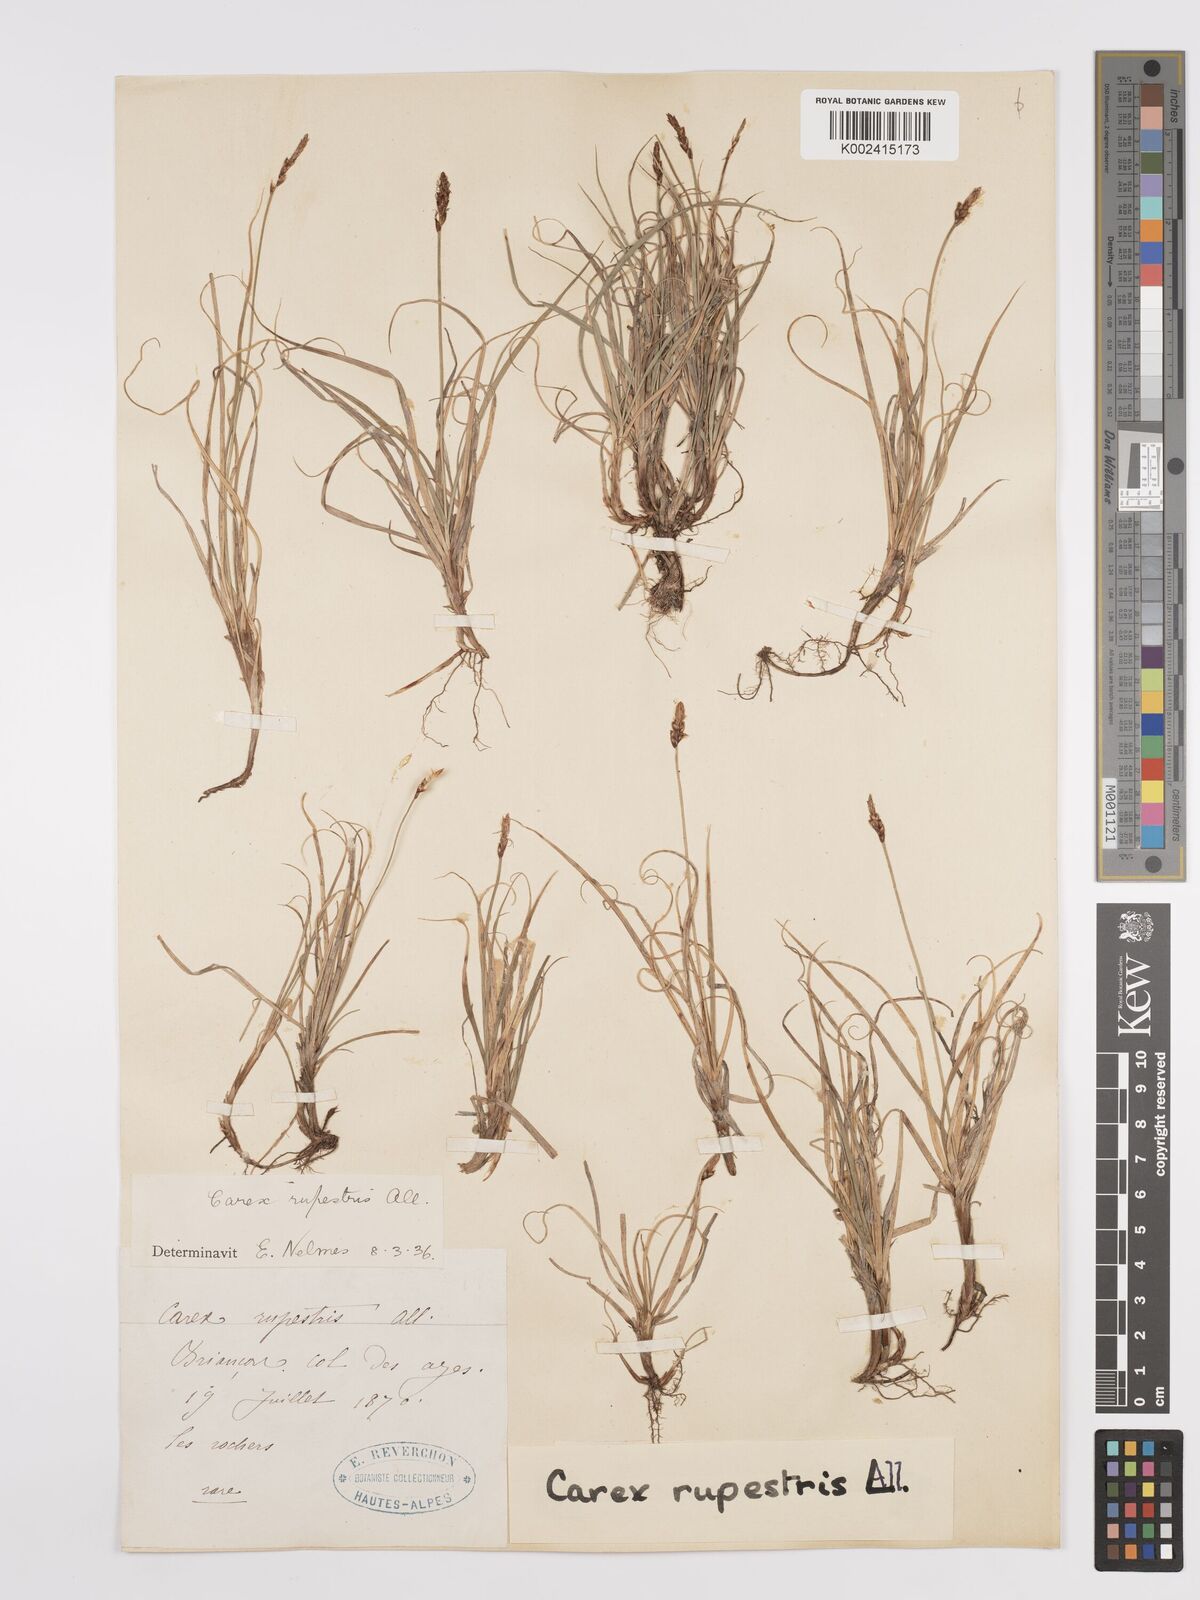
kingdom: Plantae
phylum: Tracheophyta
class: Liliopsida
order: Poales
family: Cyperaceae
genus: Carex
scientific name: Carex rupestris
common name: Rock sedge
